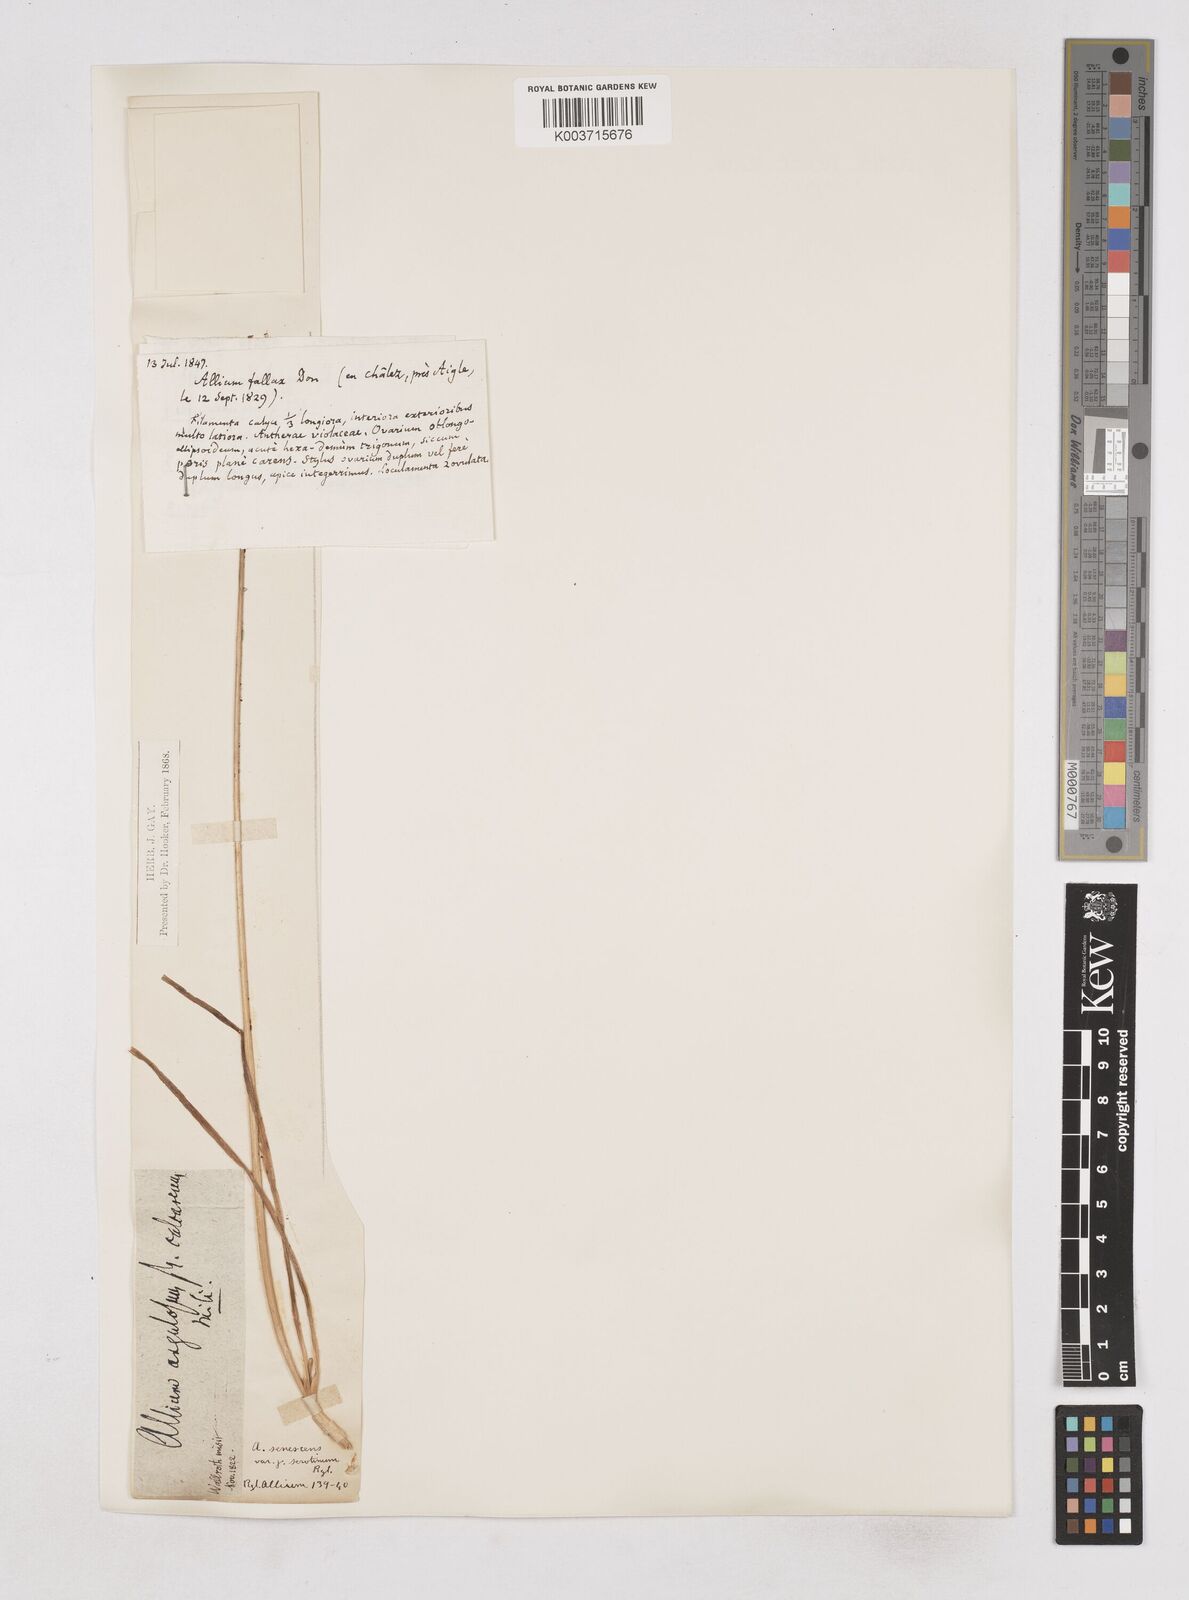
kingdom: Plantae
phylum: Tracheophyta
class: Liliopsida
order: Asparagales
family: Amaryllidaceae
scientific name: Amaryllidaceae
